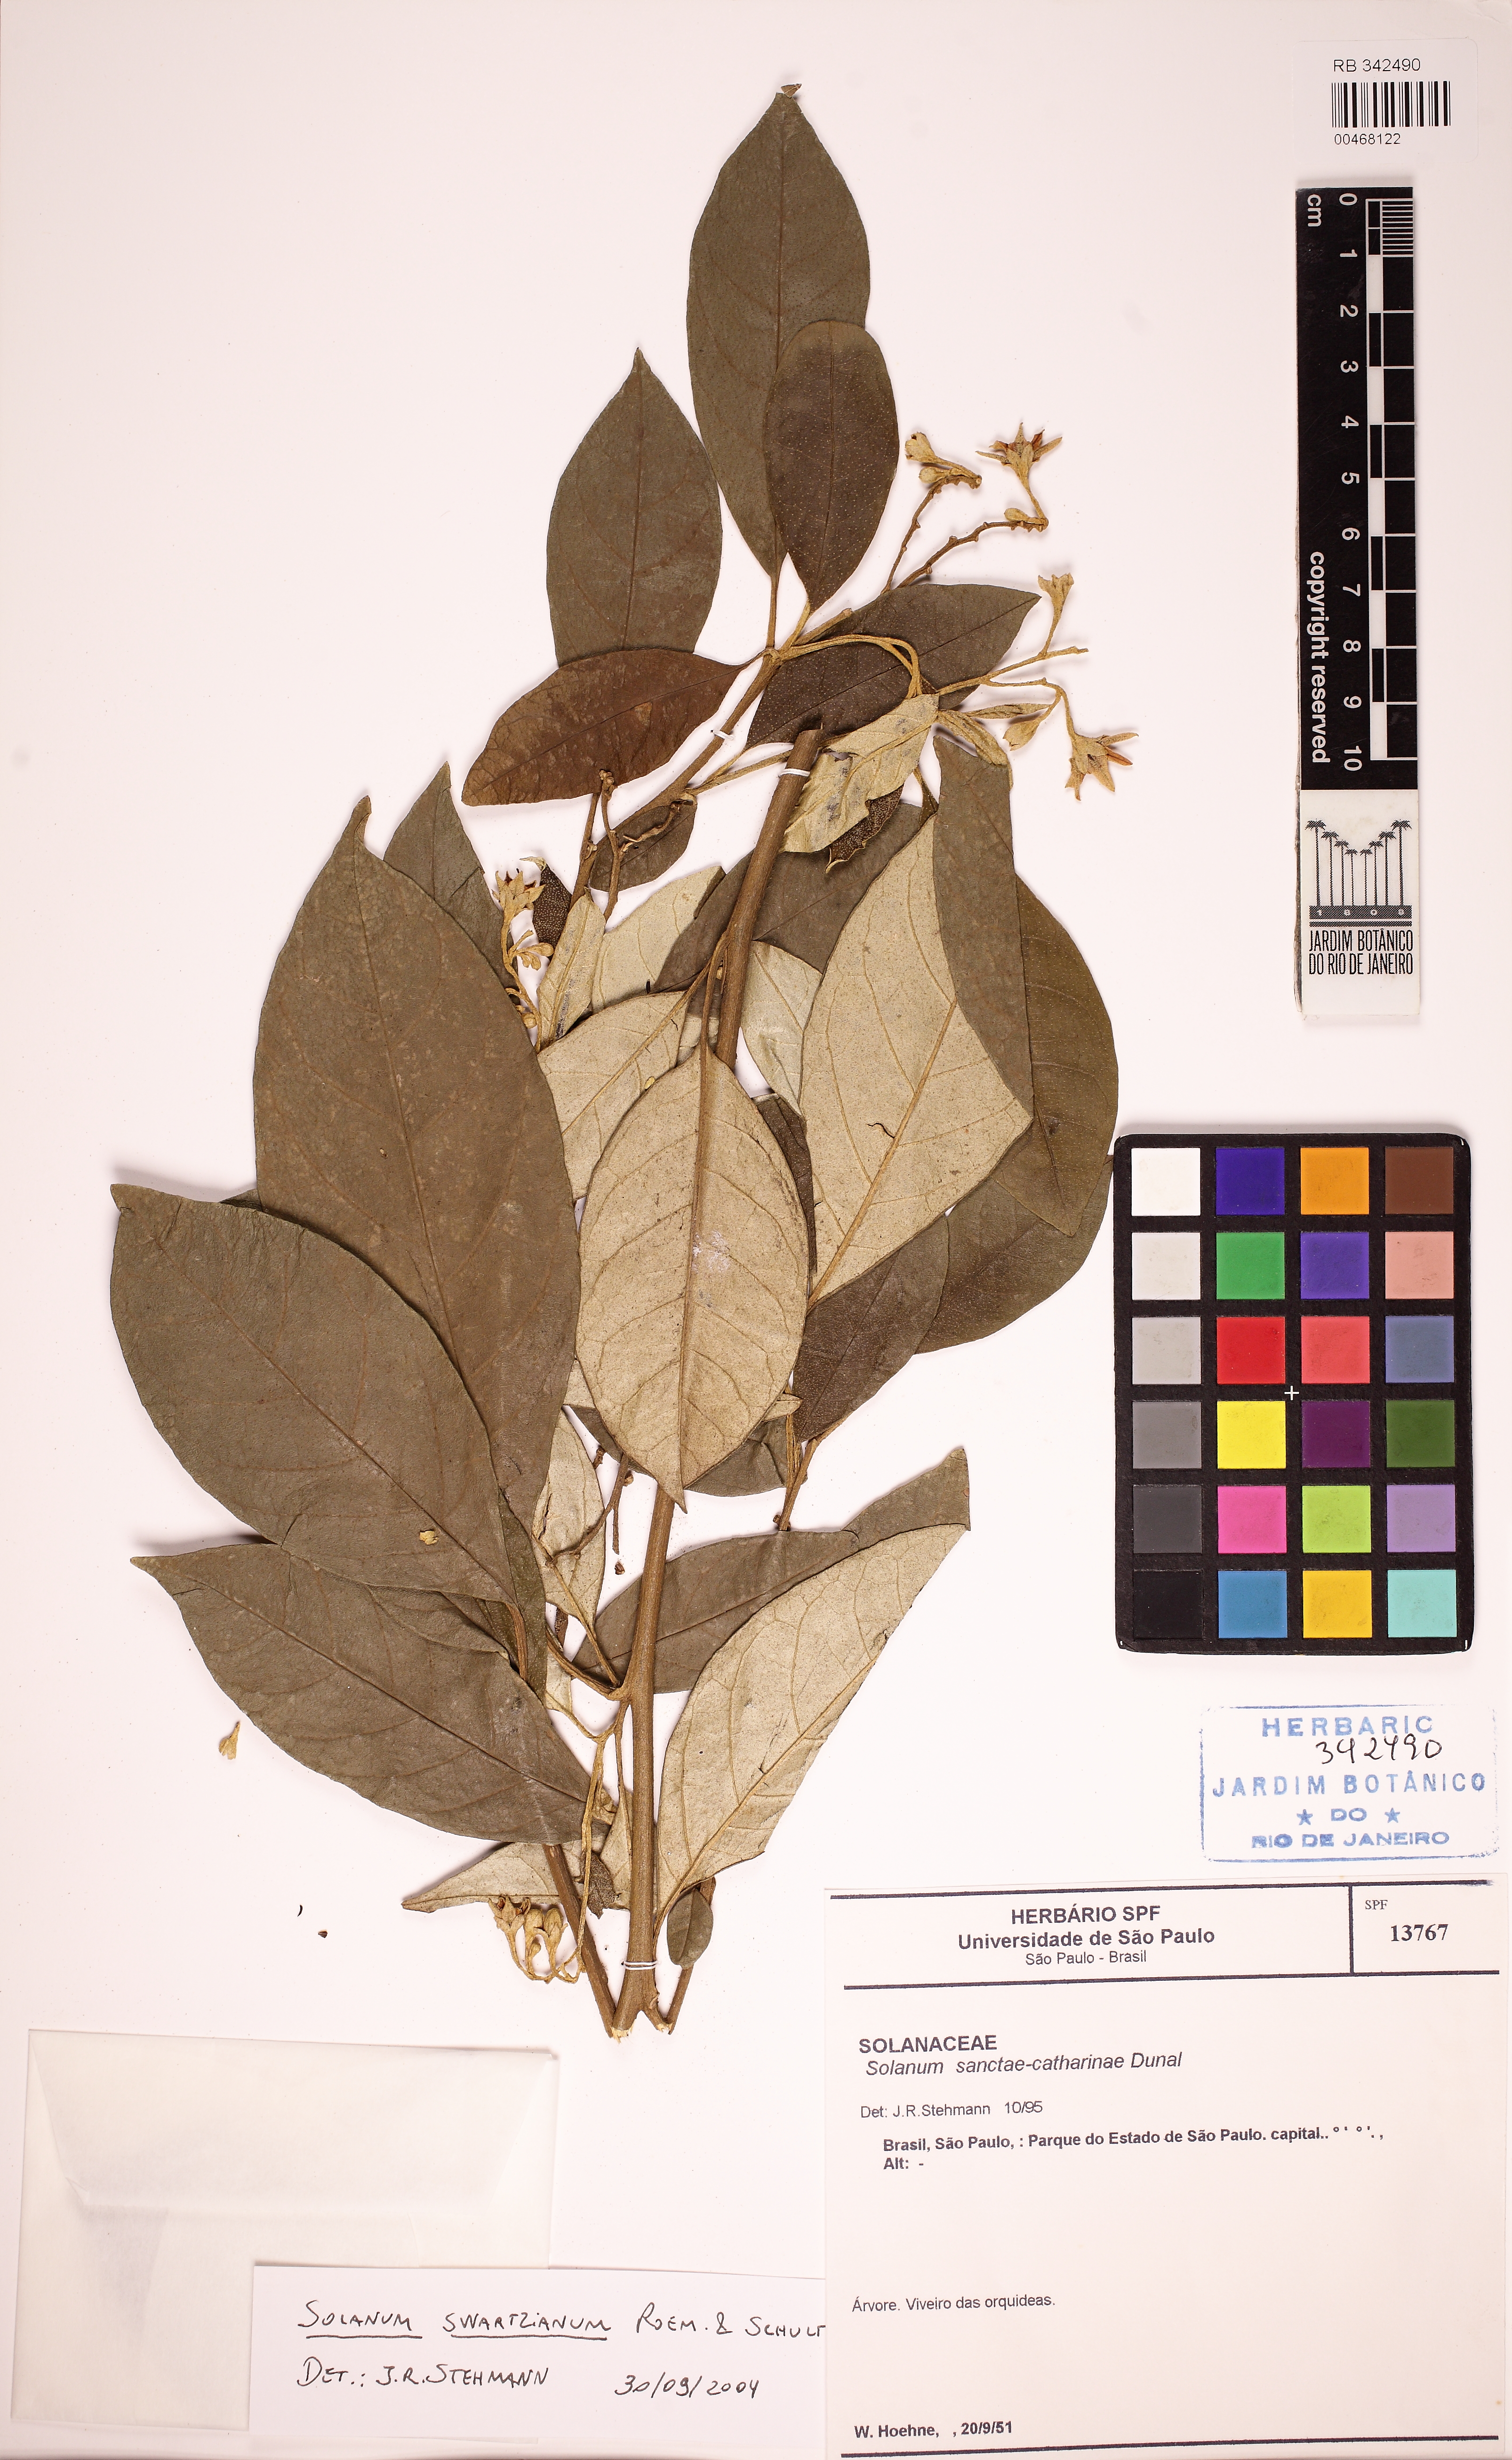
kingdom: Plantae
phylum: Tracheophyta
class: Magnoliopsida
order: Solanales
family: Solanaceae
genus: Solanum
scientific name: Solanum swartzianum
